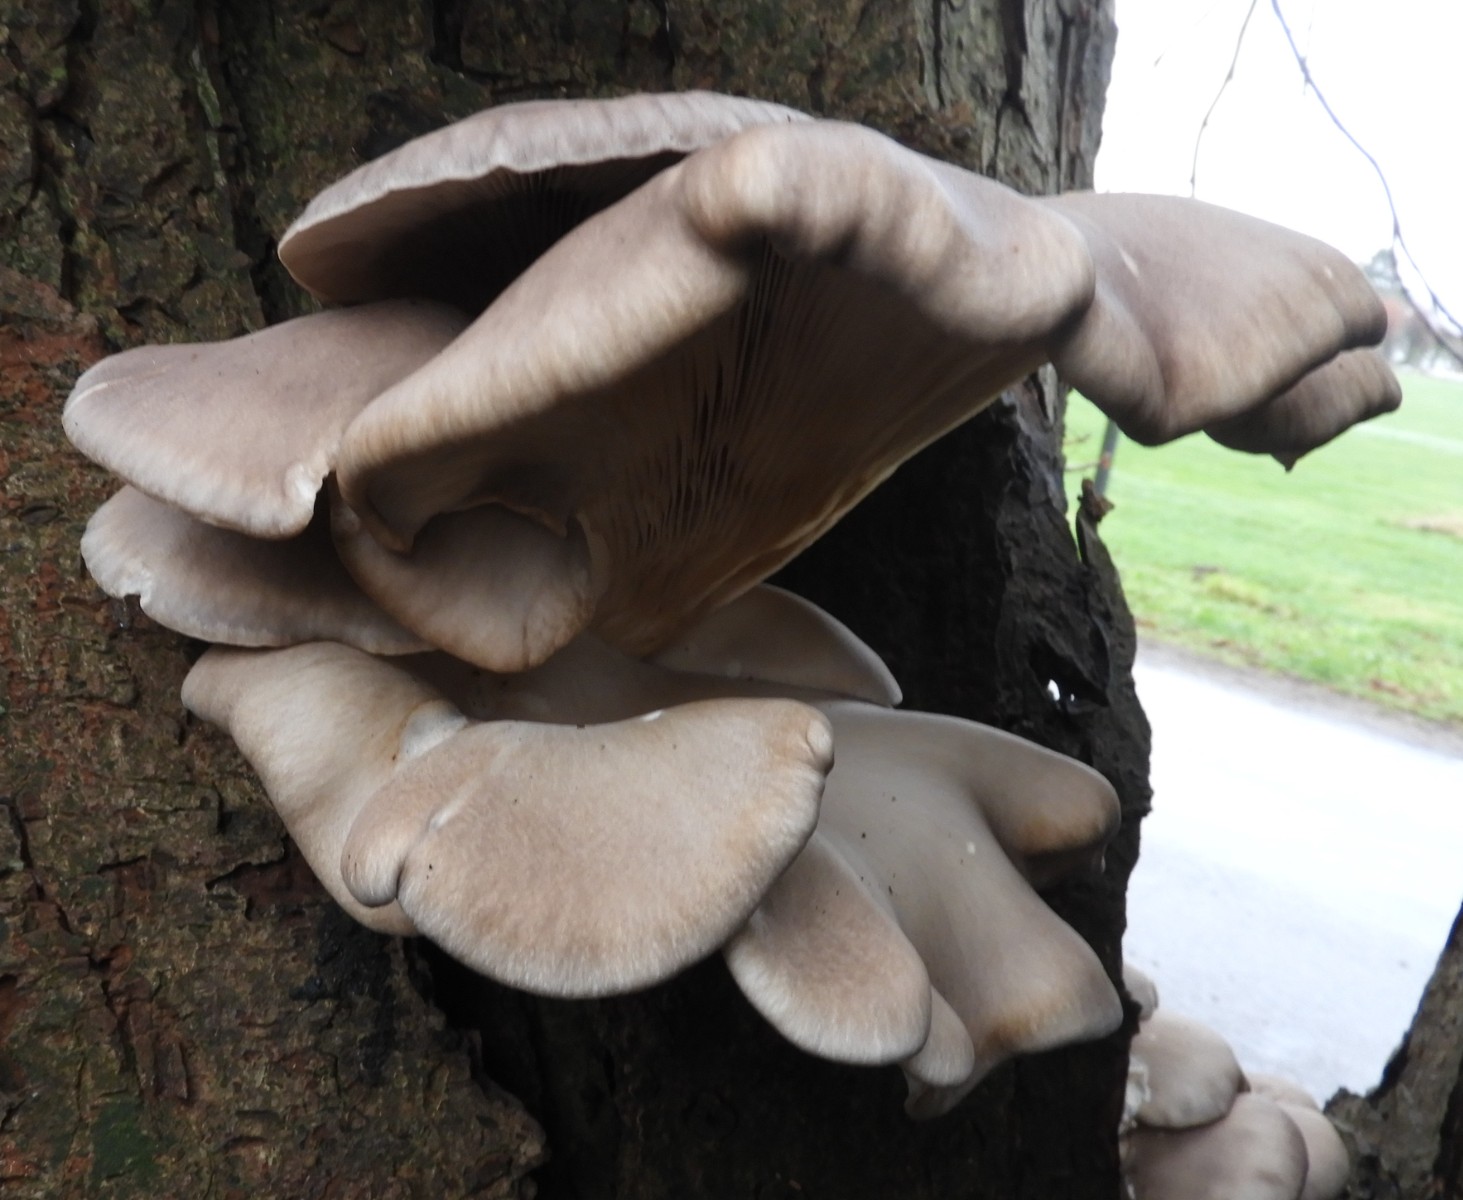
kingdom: Fungi
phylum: Basidiomycota
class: Agaricomycetes
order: Agaricales
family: Pleurotaceae
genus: Pleurotus
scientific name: Pleurotus ostreatus
